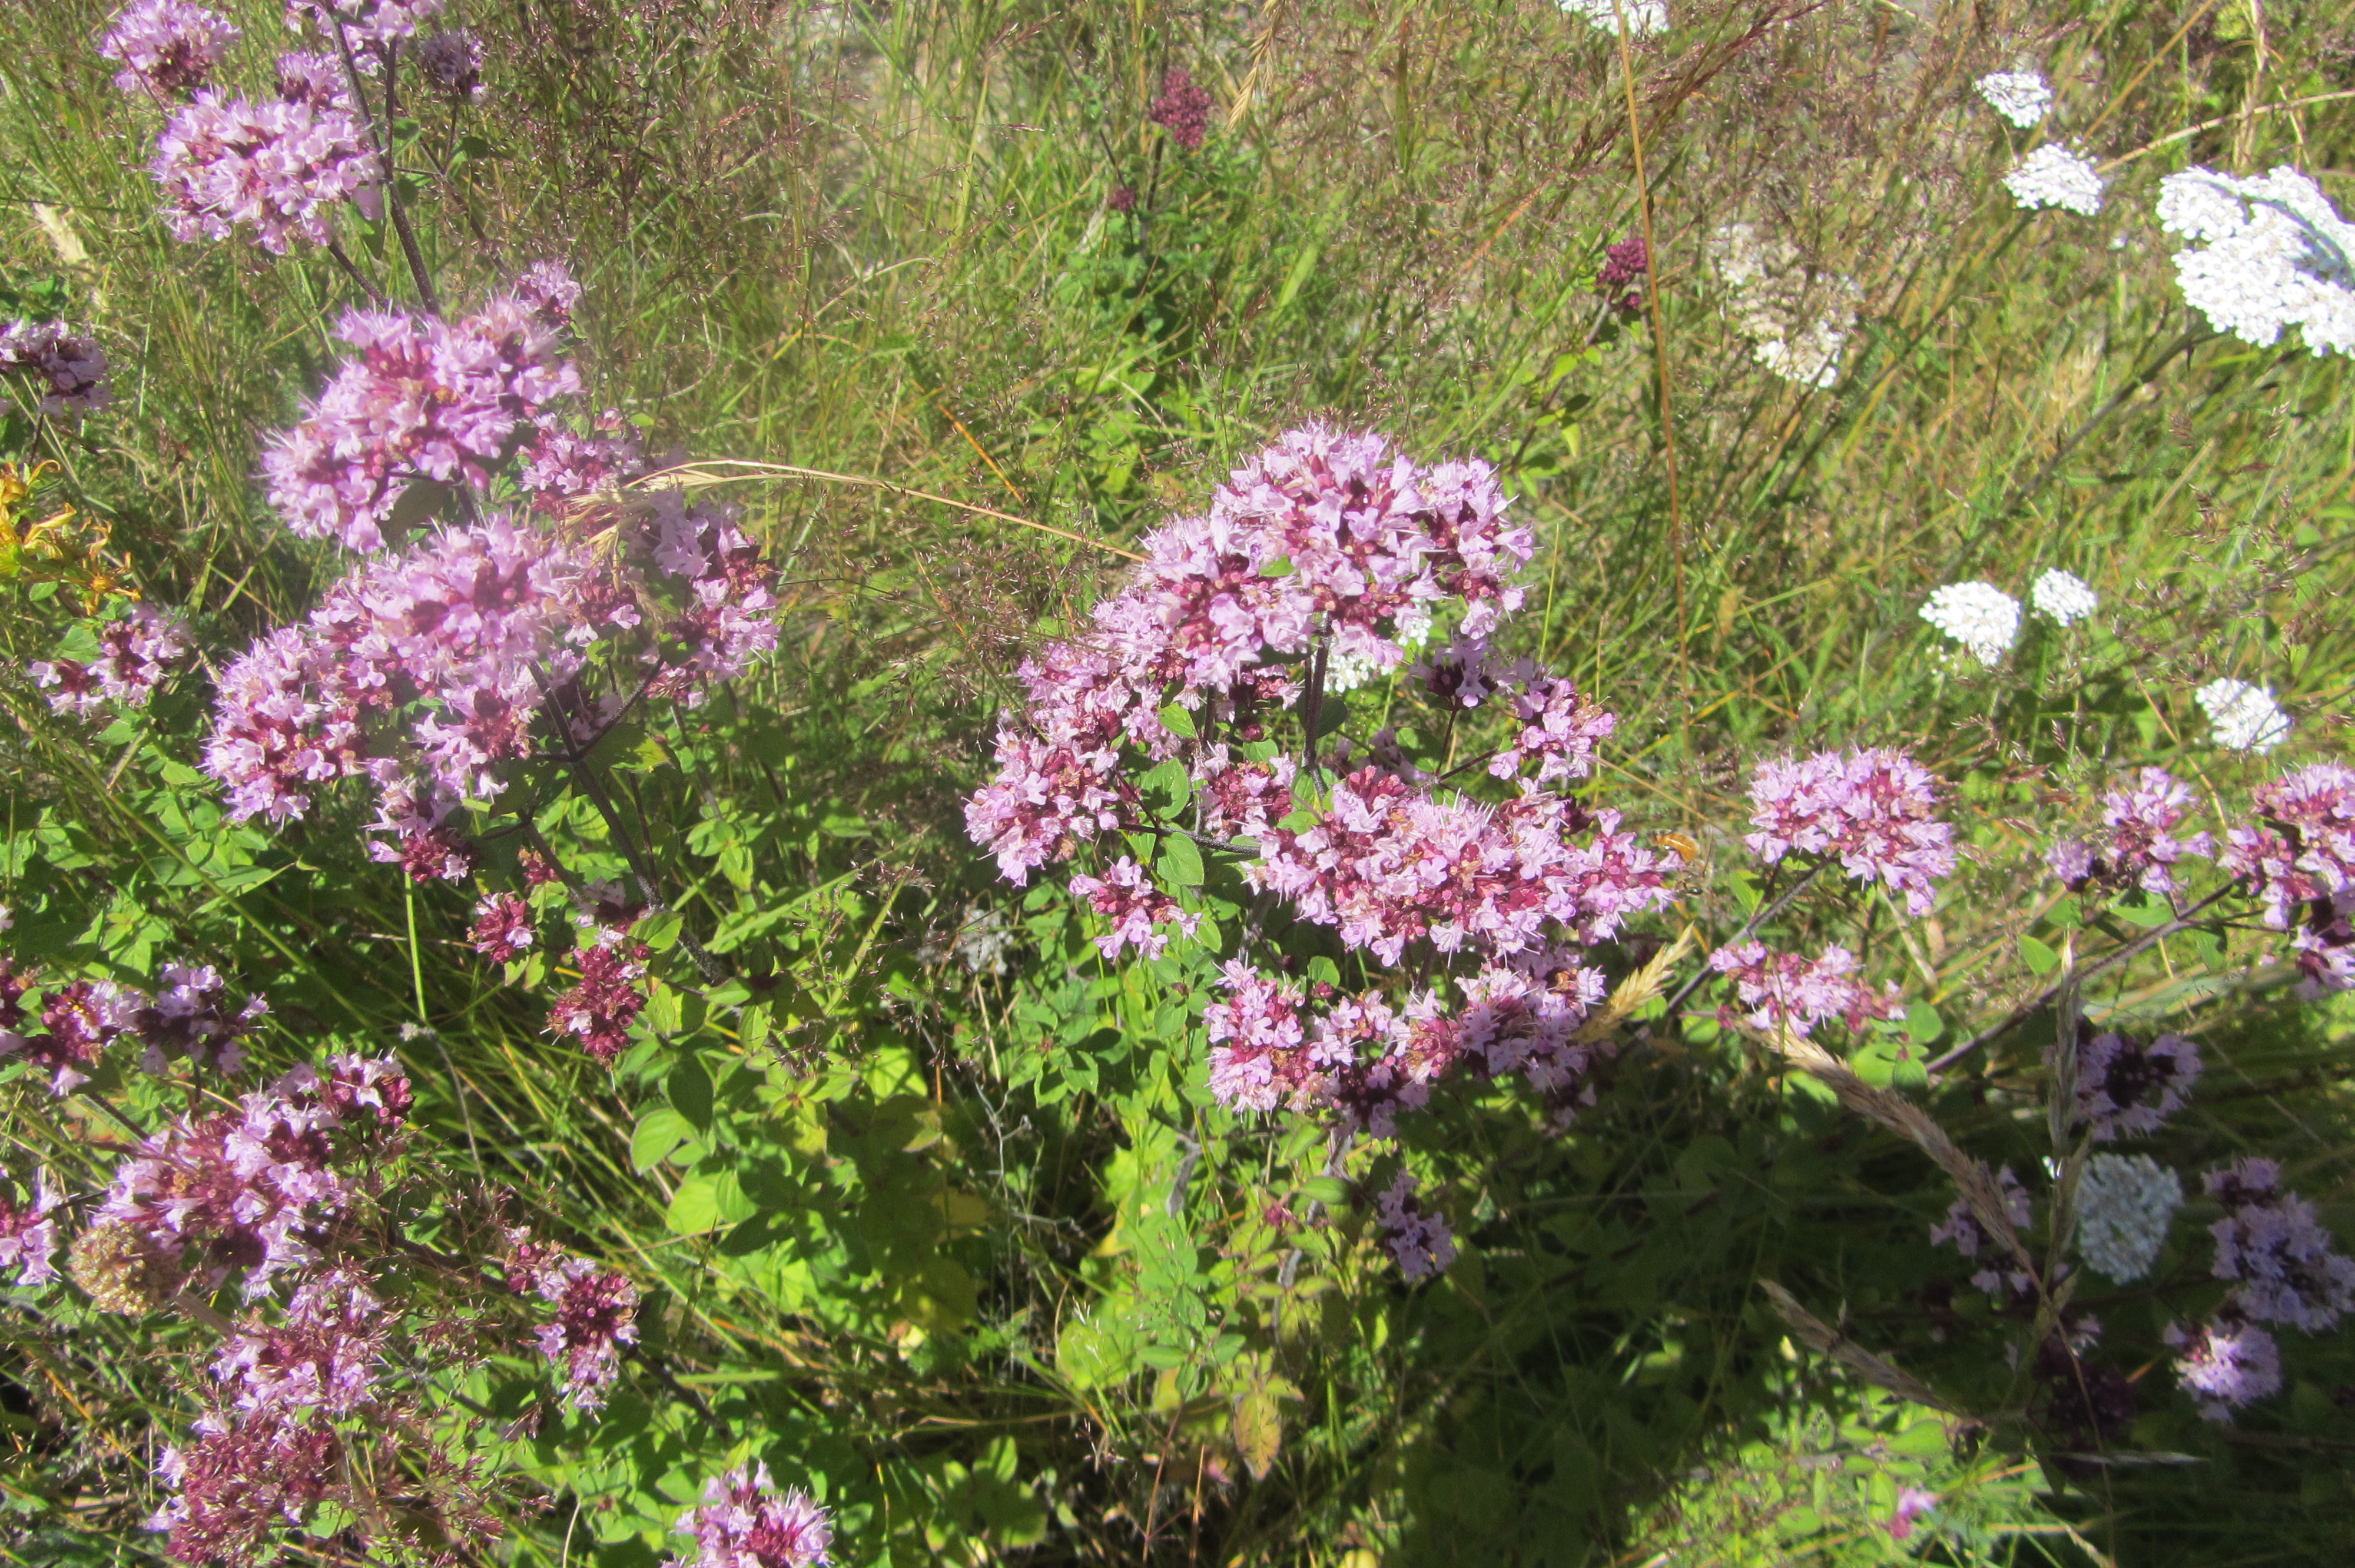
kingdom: Plantae
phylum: Tracheophyta
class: Magnoliopsida
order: Lamiales
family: Lamiaceae
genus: Origanum
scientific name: Origanum vulgare
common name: Wild marjoram
